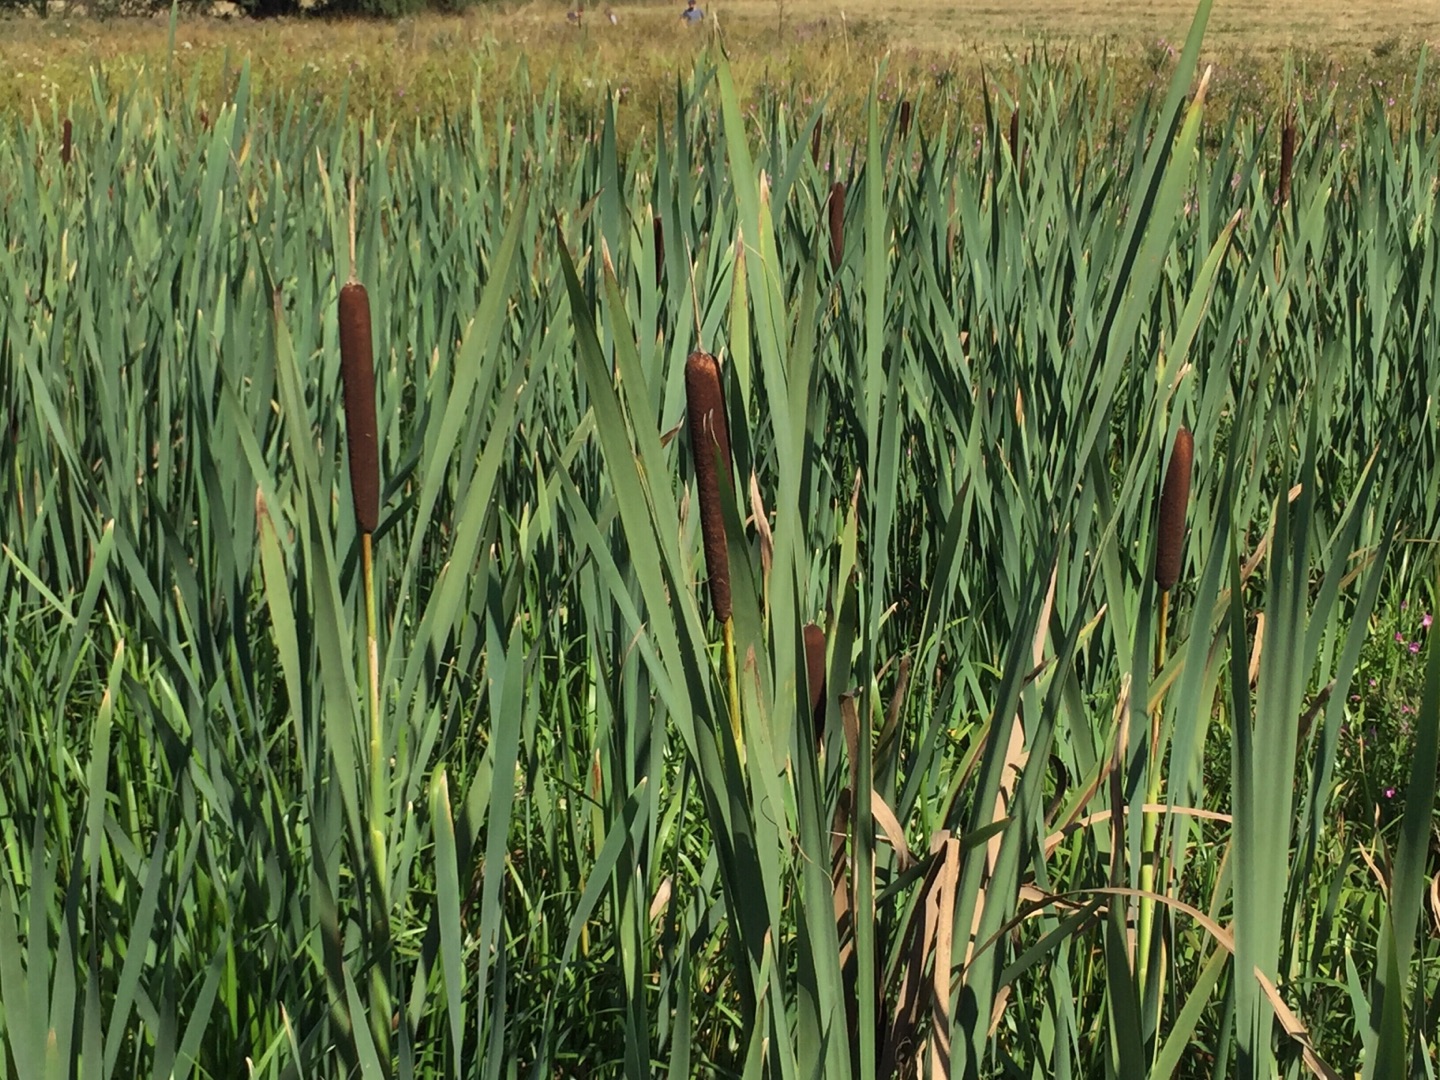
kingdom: Plantae
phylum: Tracheophyta
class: Liliopsida
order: Poales
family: Typhaceae
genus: Typha
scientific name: Typha latifolia
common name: Bredbladet dunhammer
